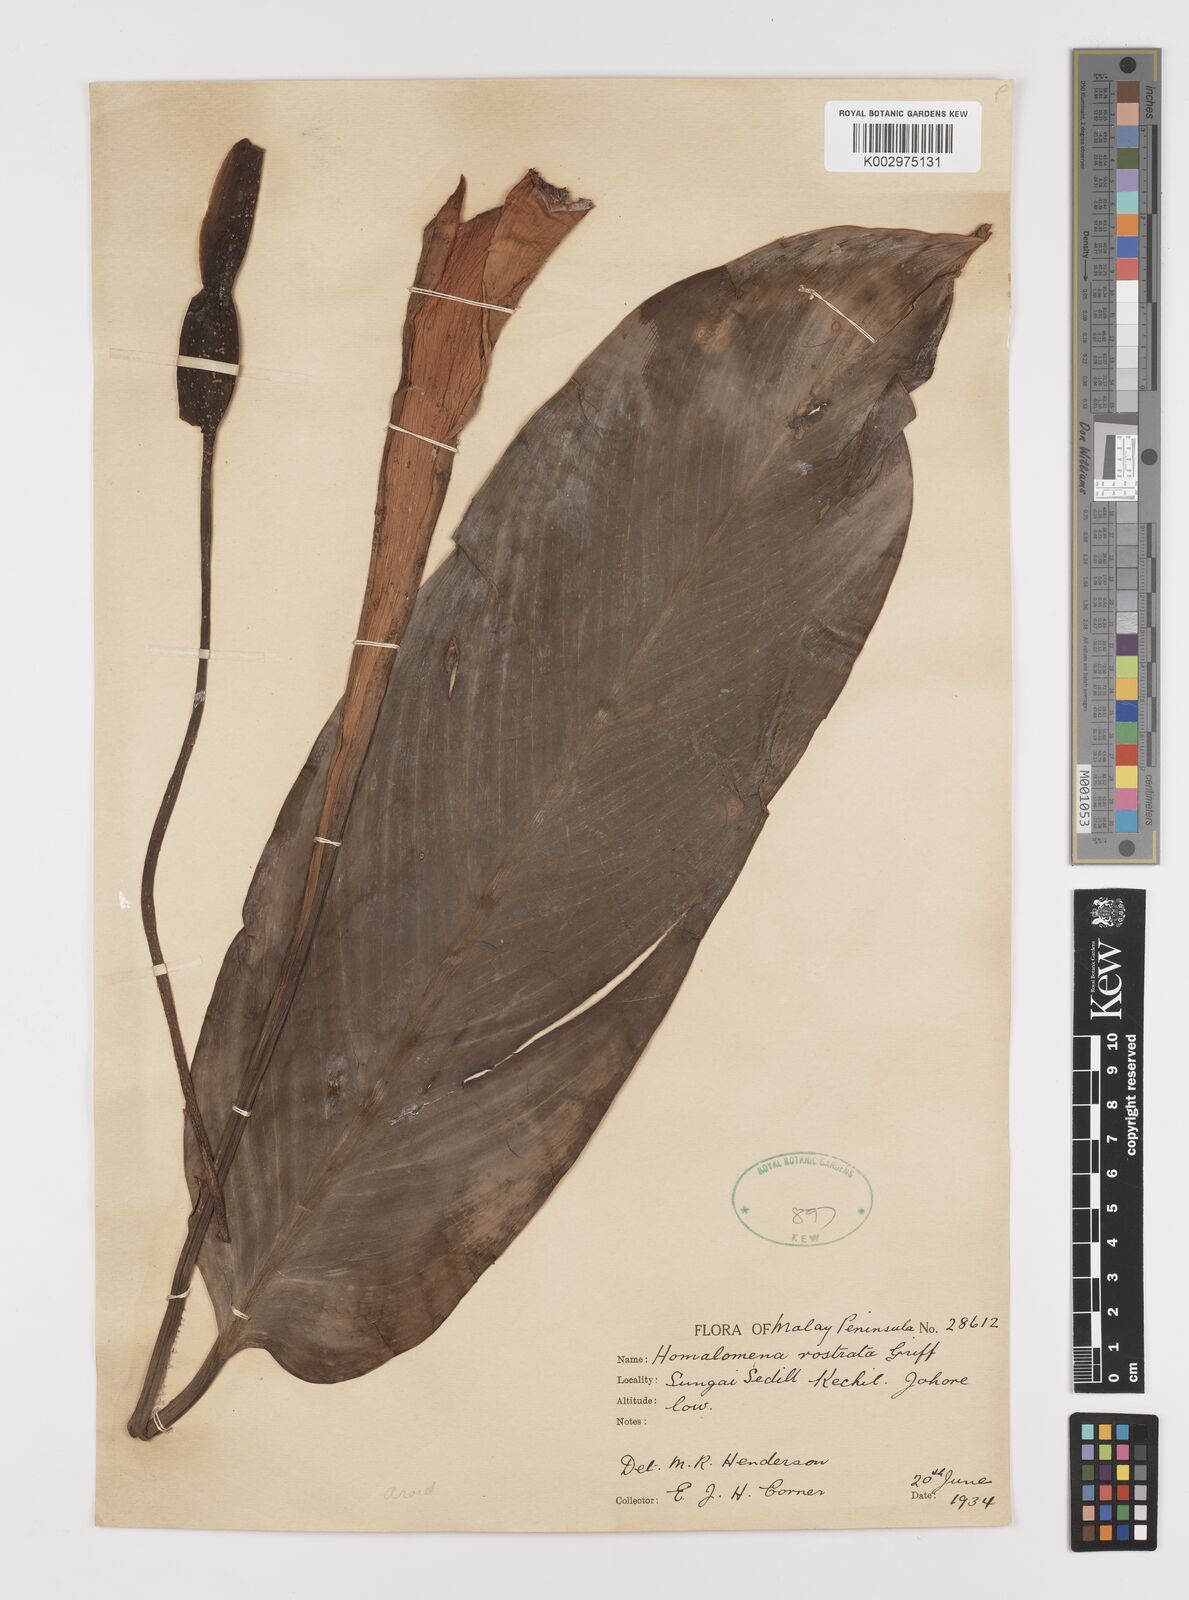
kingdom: Plantae
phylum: Tracheophyta
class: Liliopsida
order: Alismatales
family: Araceae
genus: Homalomena
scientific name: Homalomena rostrata
